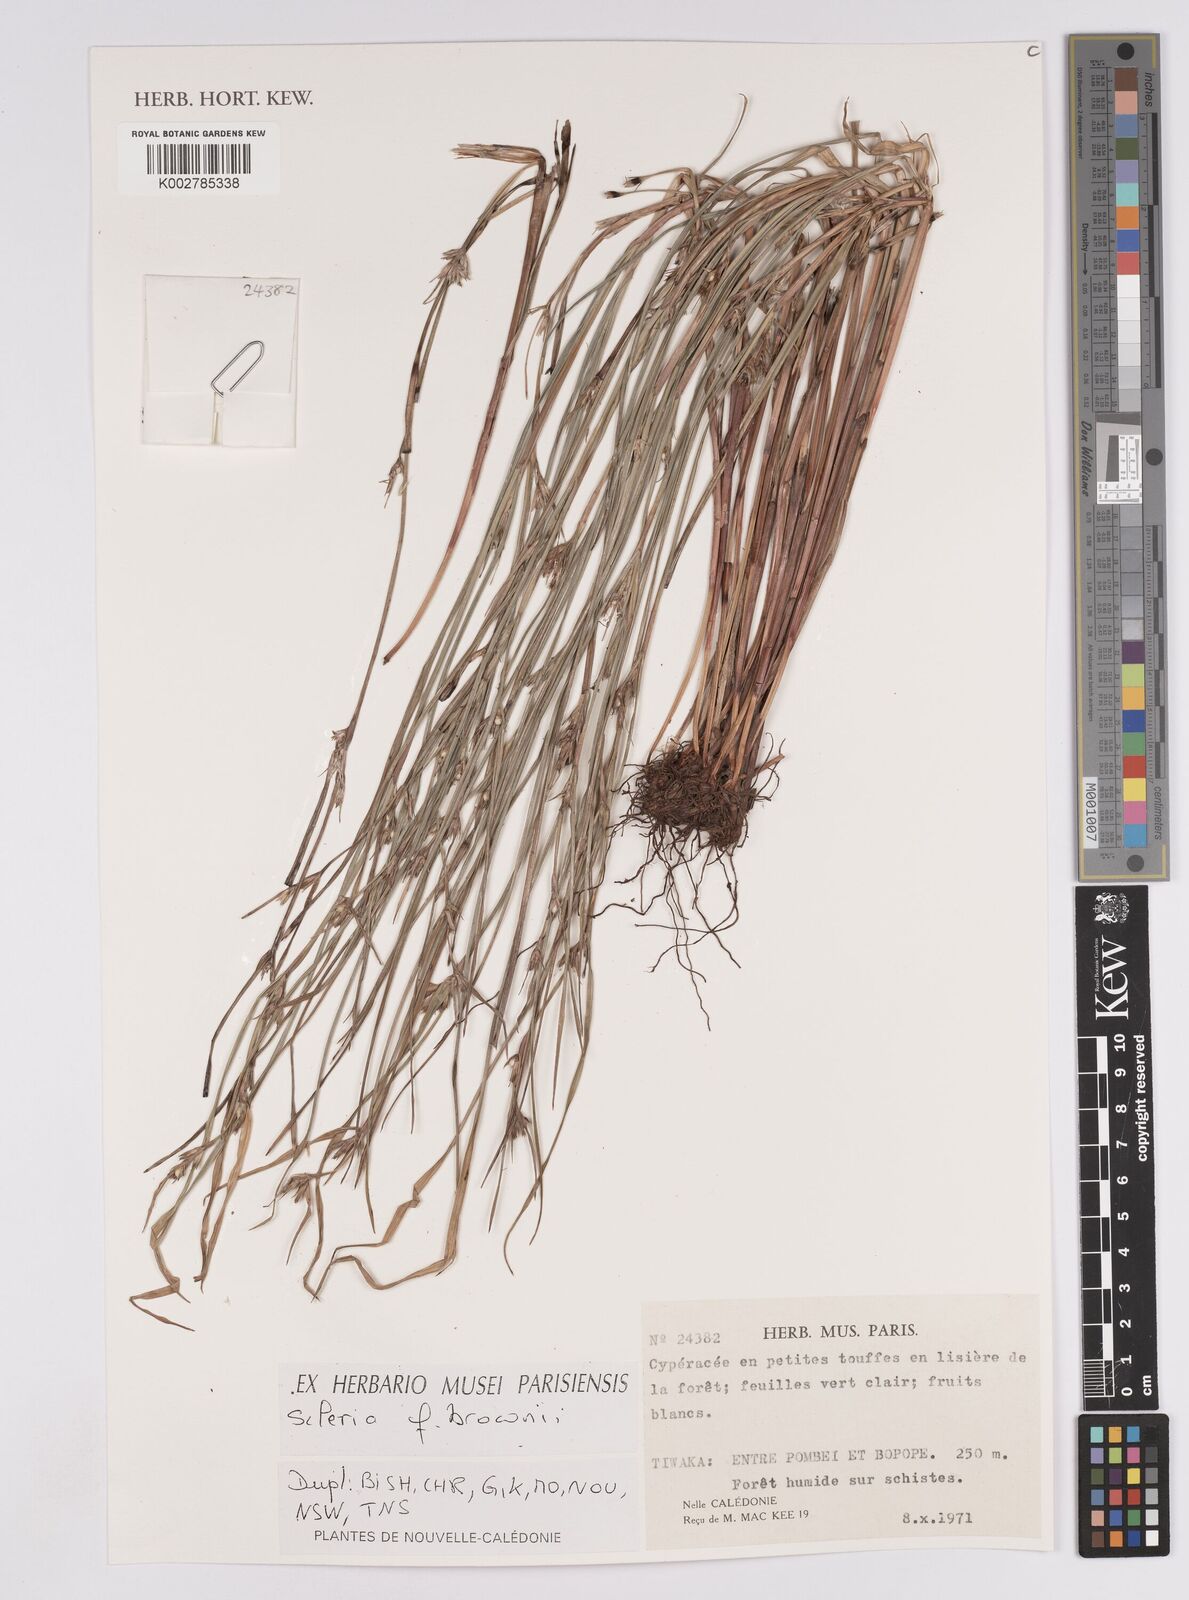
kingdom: Plantae
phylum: Tracheophyta
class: Liliopsida
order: Poales
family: Cyperaceae
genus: Scleria
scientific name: Scleria brownii
